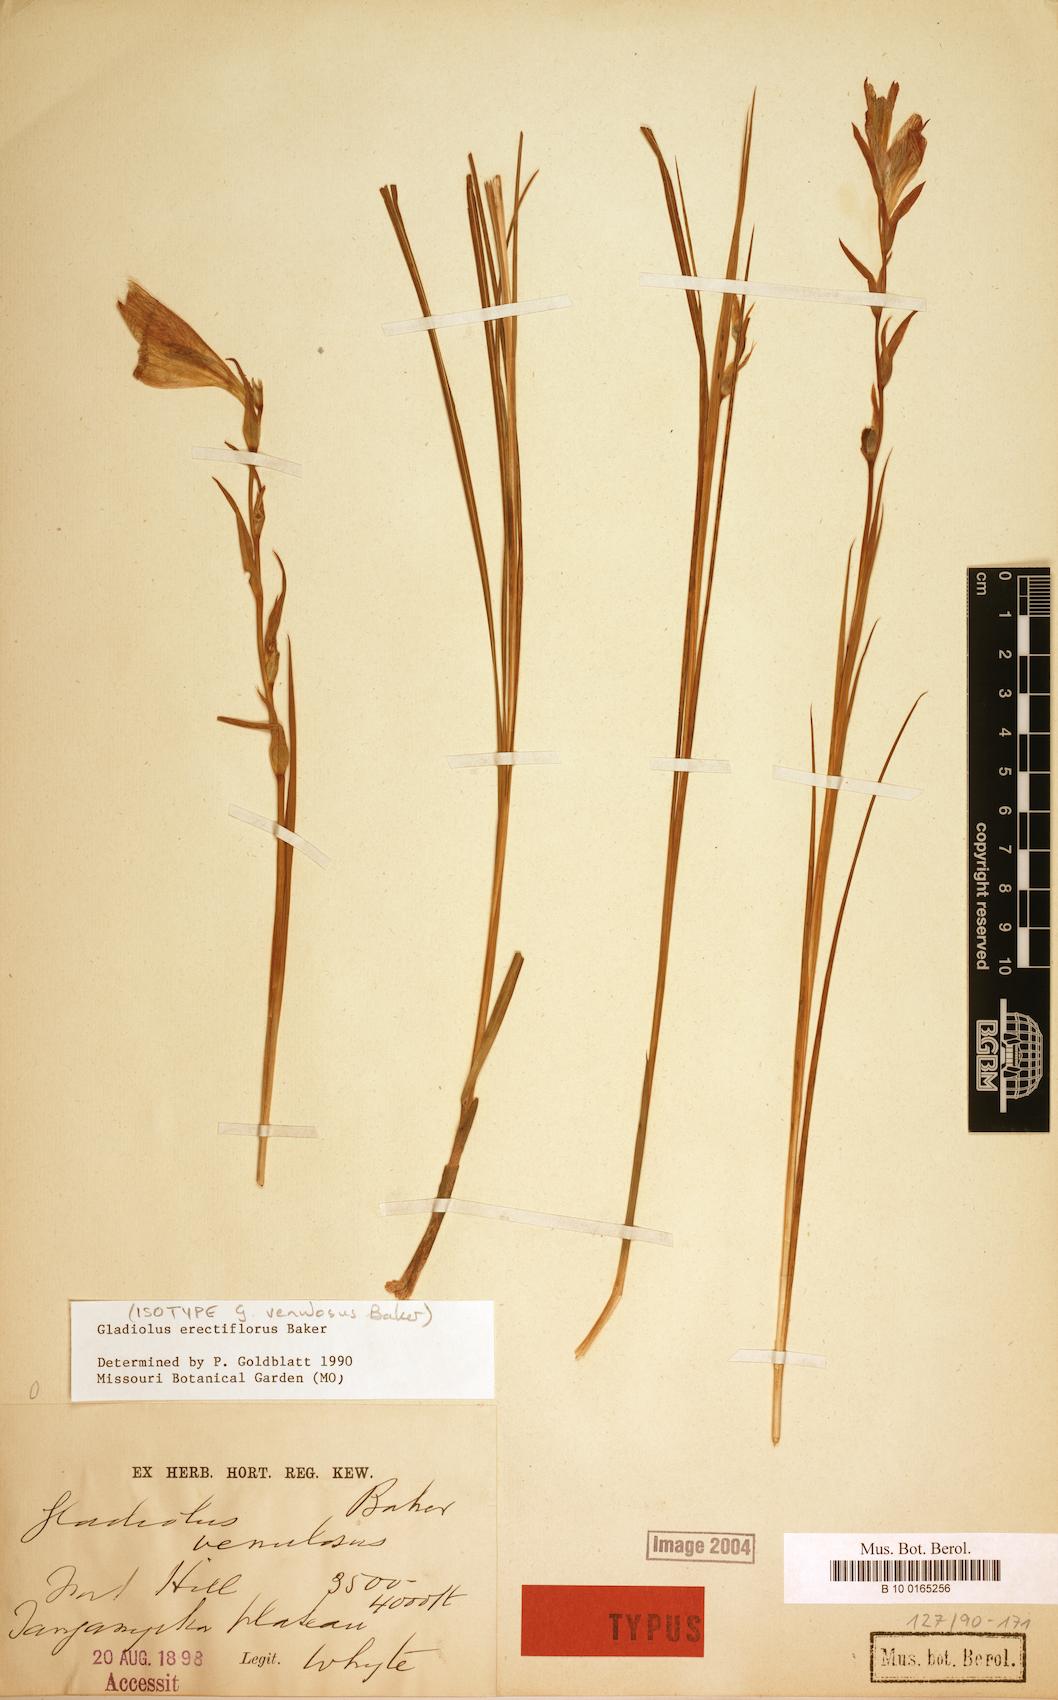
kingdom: Plantae
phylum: Tracheophyta
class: Liliopsida
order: Asparagales
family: Iridaceae
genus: Gladiolus
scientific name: Gladiolus erectiflorus
